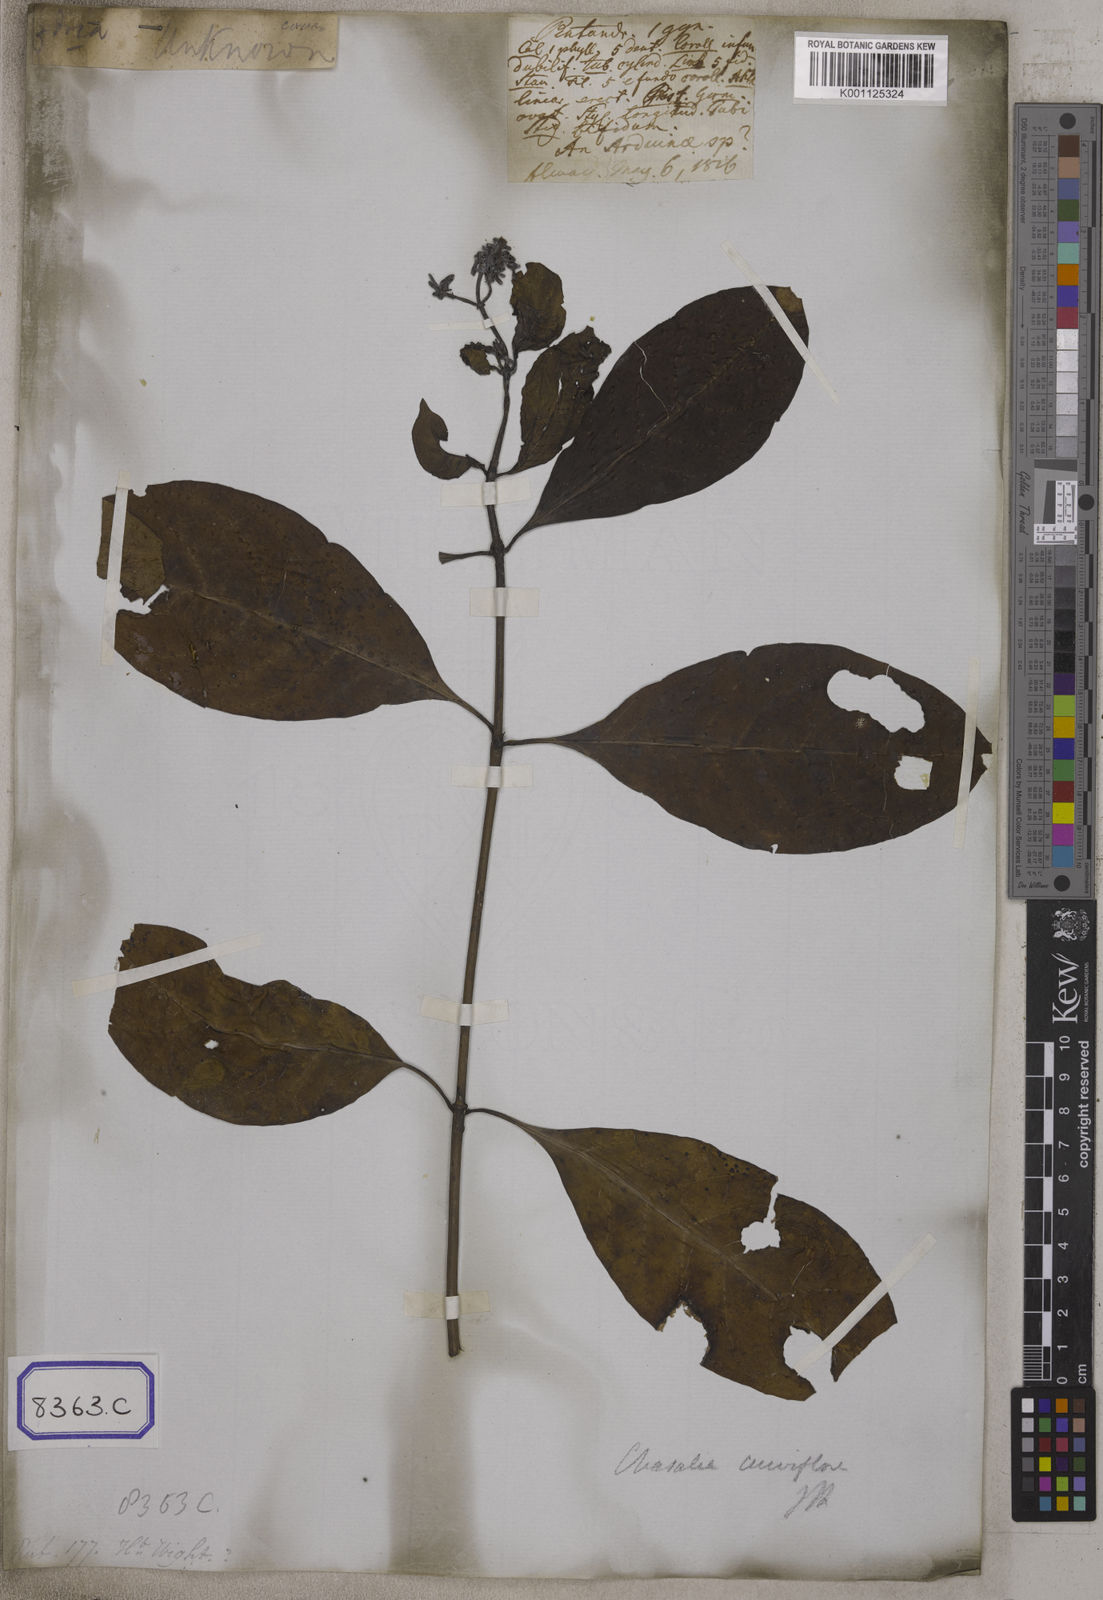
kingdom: Plantae
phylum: Tracheophyta
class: Magnoliopsida
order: Gentianales
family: Rubiaceae
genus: Psychotria
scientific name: Psychotria
